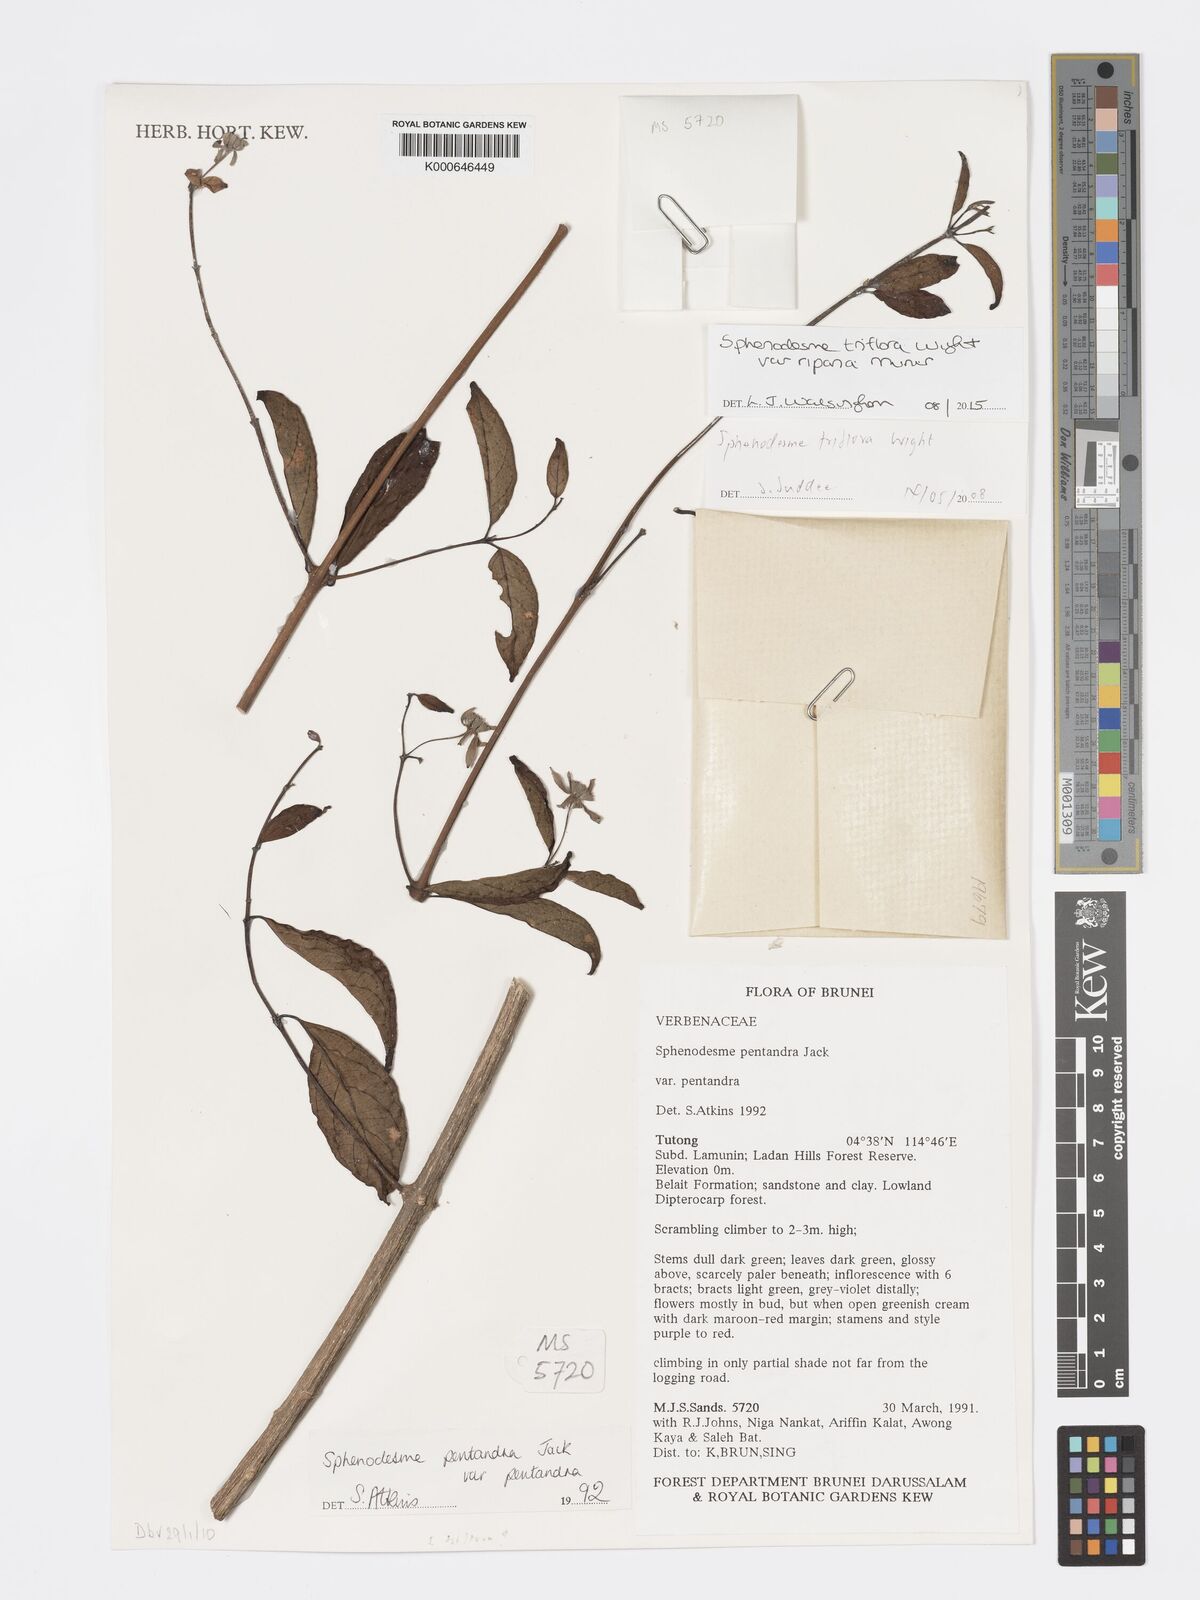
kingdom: Plantae
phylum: Tracheophyta
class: Magnoliopsida
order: Lamiales
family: Lamiaceae
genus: Sphenodesme
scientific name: Sphenodesme triflora
